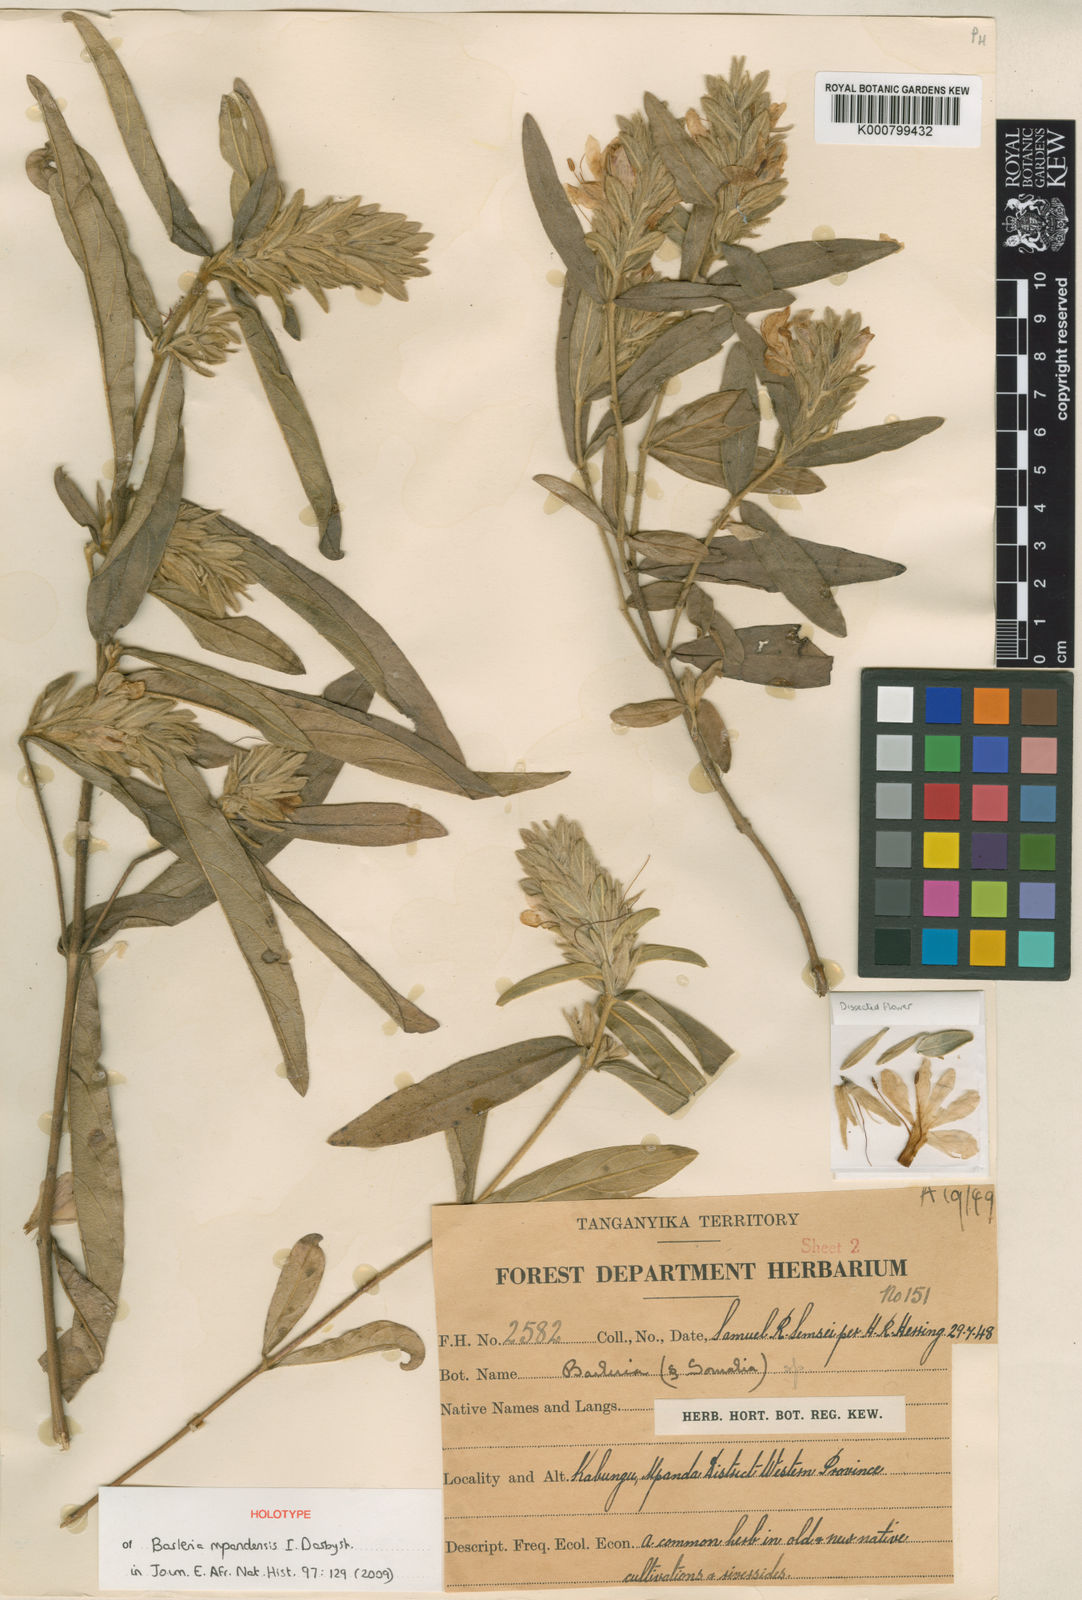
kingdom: Plantae
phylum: Tracheophyta
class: Magnoliopsida
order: Lamiales
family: Acanthaceae
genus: Barleria
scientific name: Barleria mpandensis
